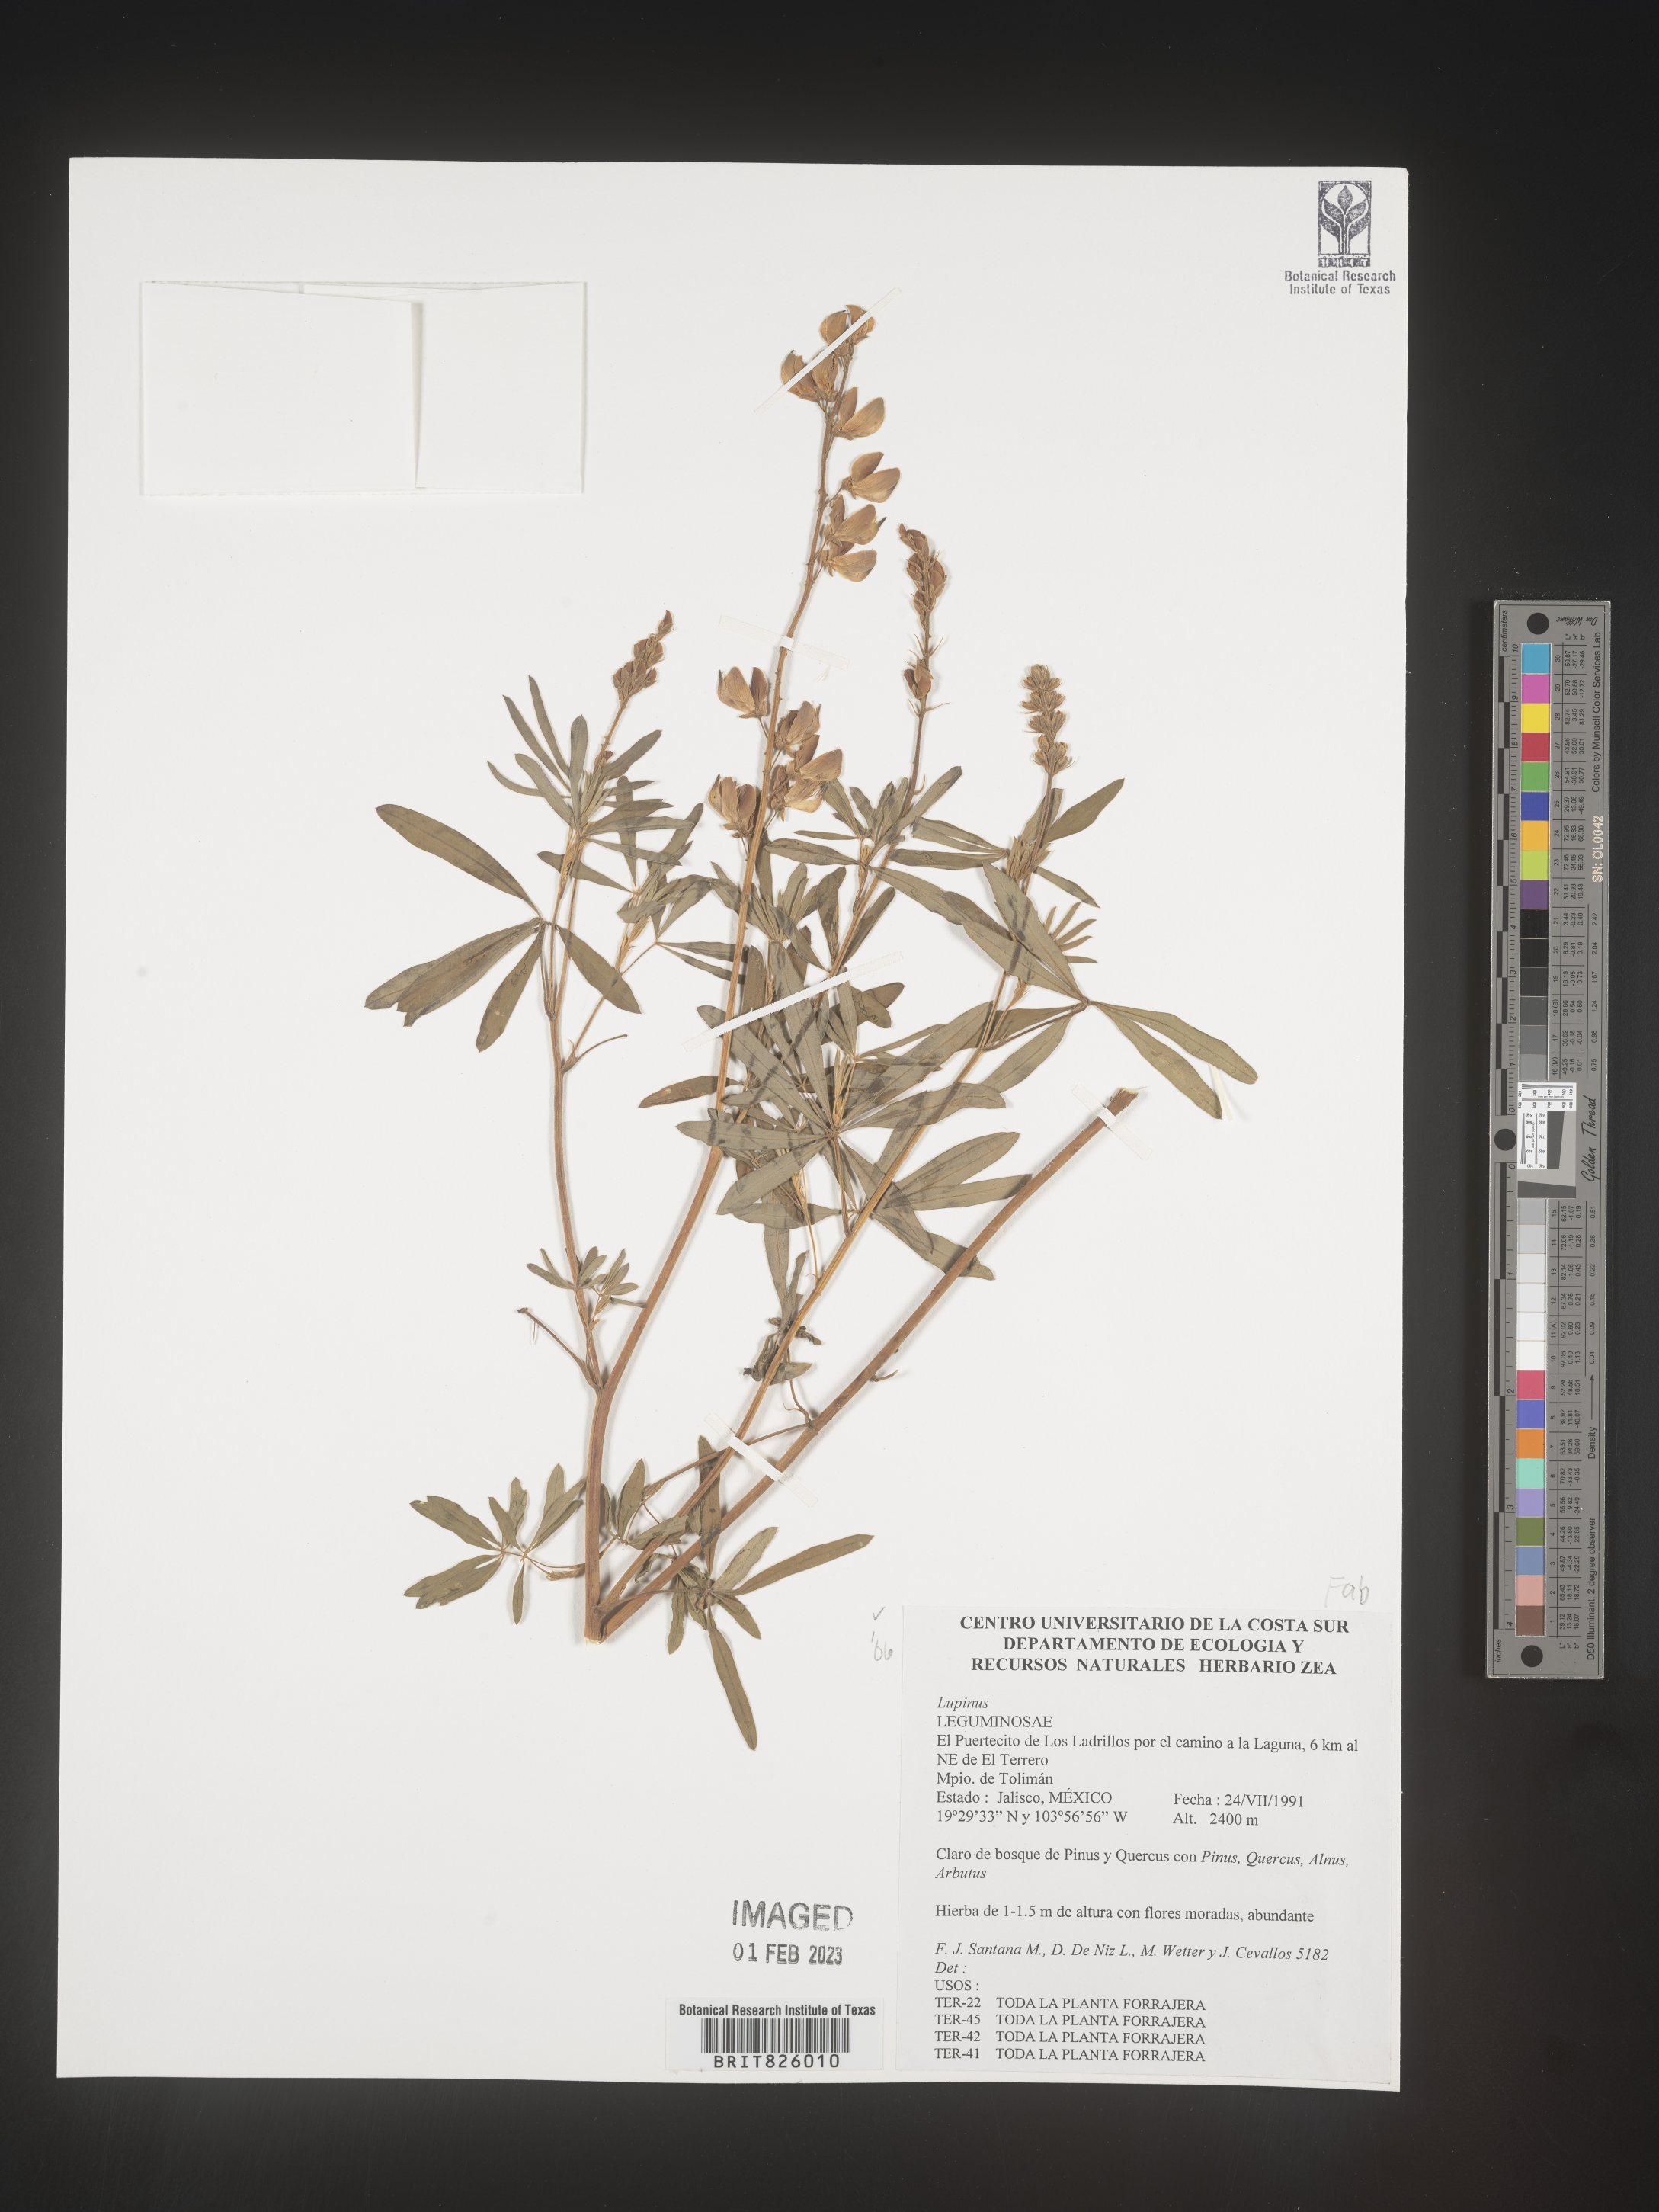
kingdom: Plantae
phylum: Tracheophyta
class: Magnoliopsida
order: Fabales
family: Fabaceae
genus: Lupinus
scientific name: Lupinus
